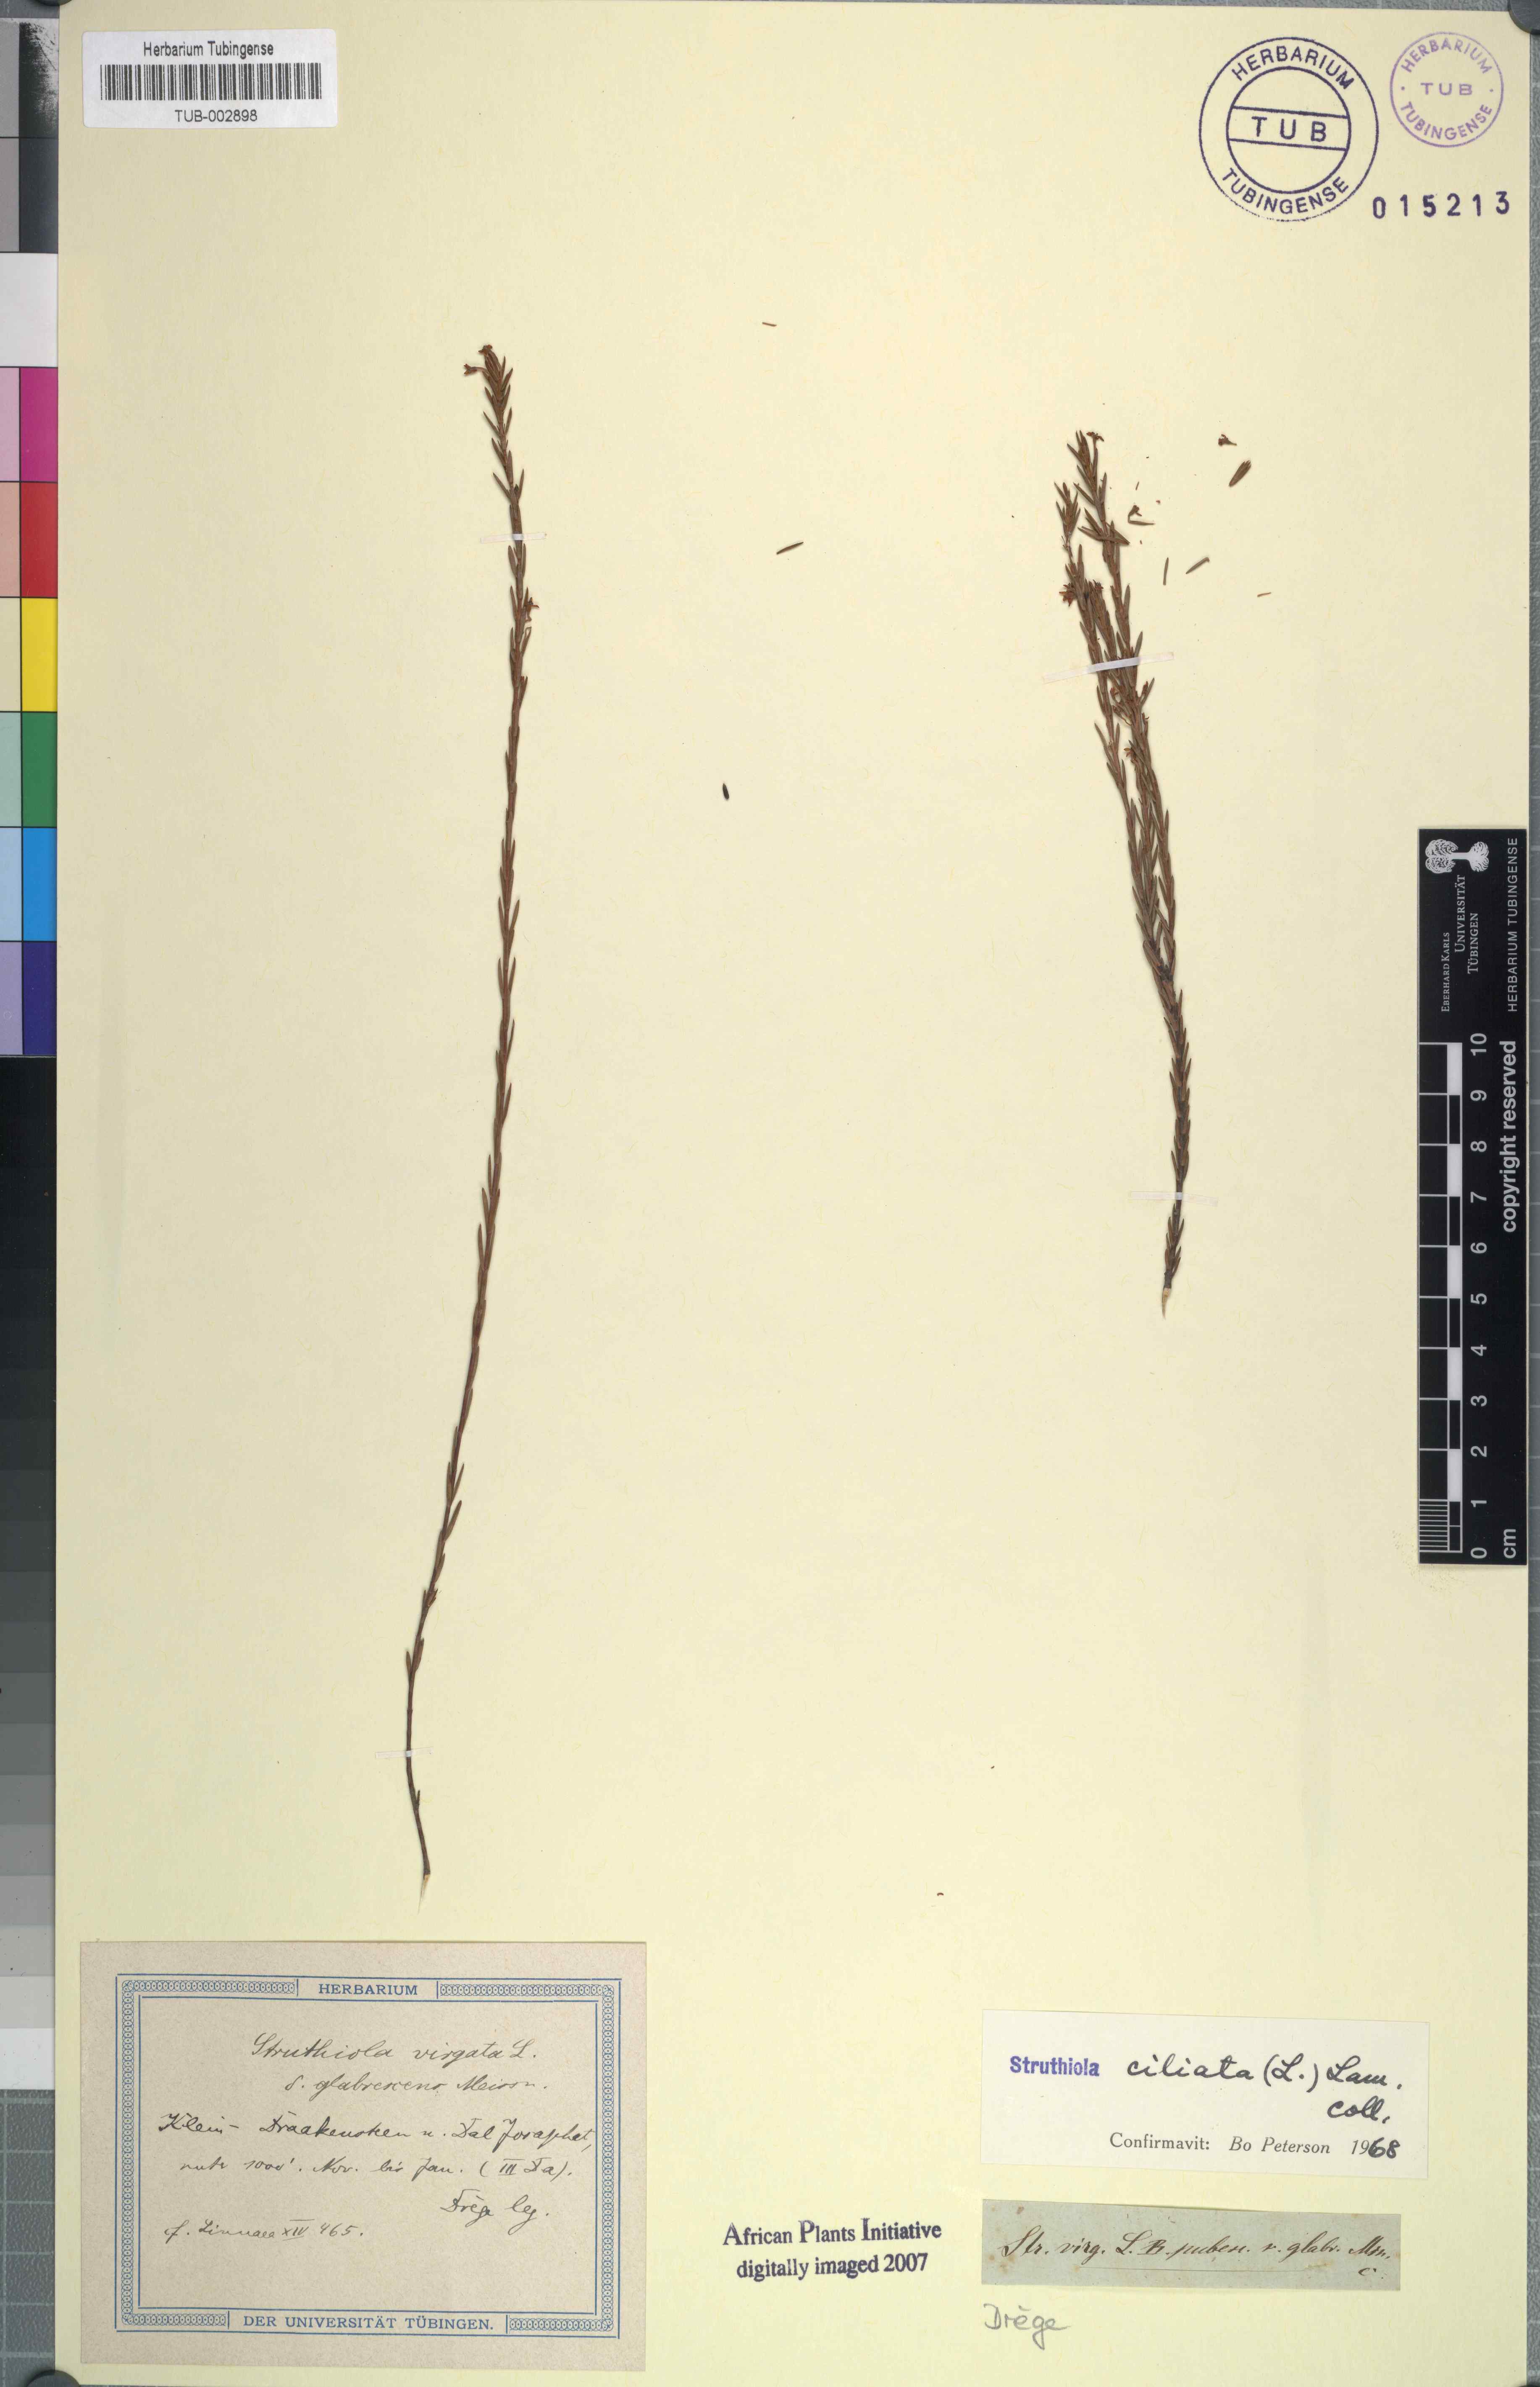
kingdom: Plantae
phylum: Tracheophyta
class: Magnoliopsida
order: Malvales
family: Thymelaeaceae
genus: Struthiola
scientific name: Struthiola ciliata
